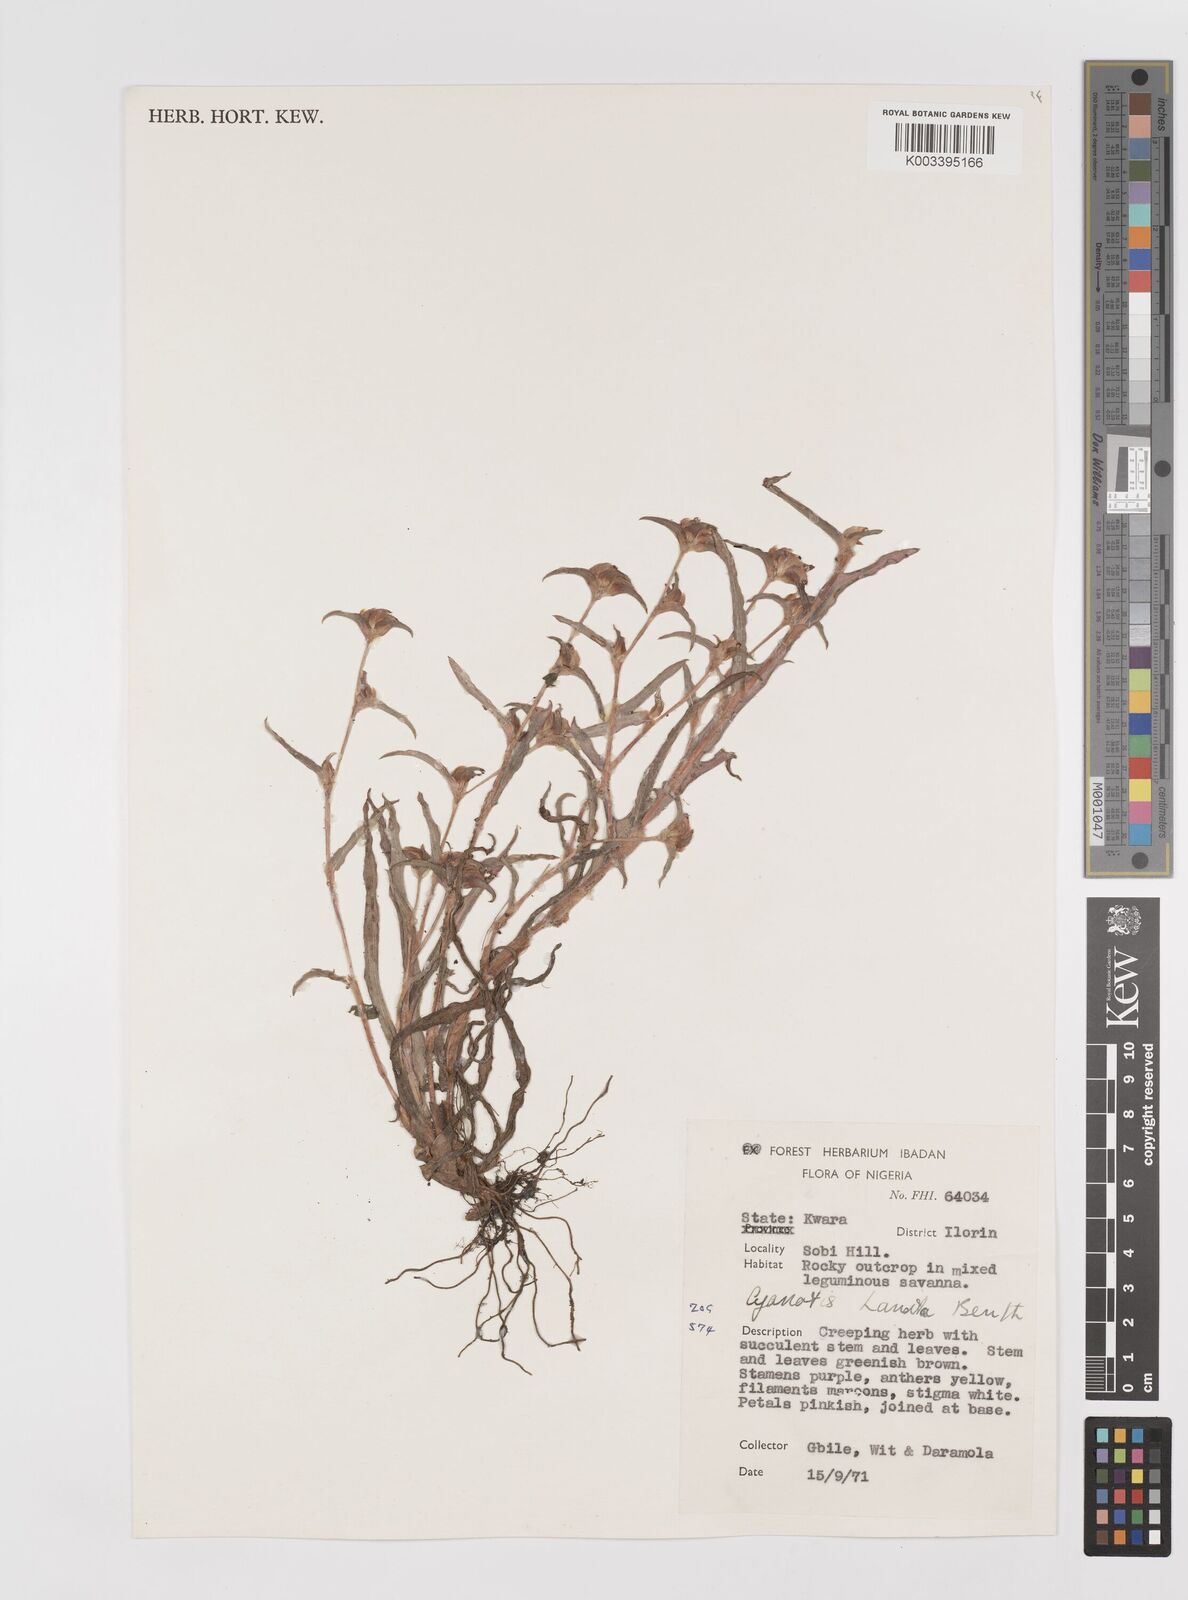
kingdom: Plantae
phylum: Tracheophyta
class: Liliopsida
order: Commelinales
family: Commelinaceae
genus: Cyanotis
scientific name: Cyanotis lanata
